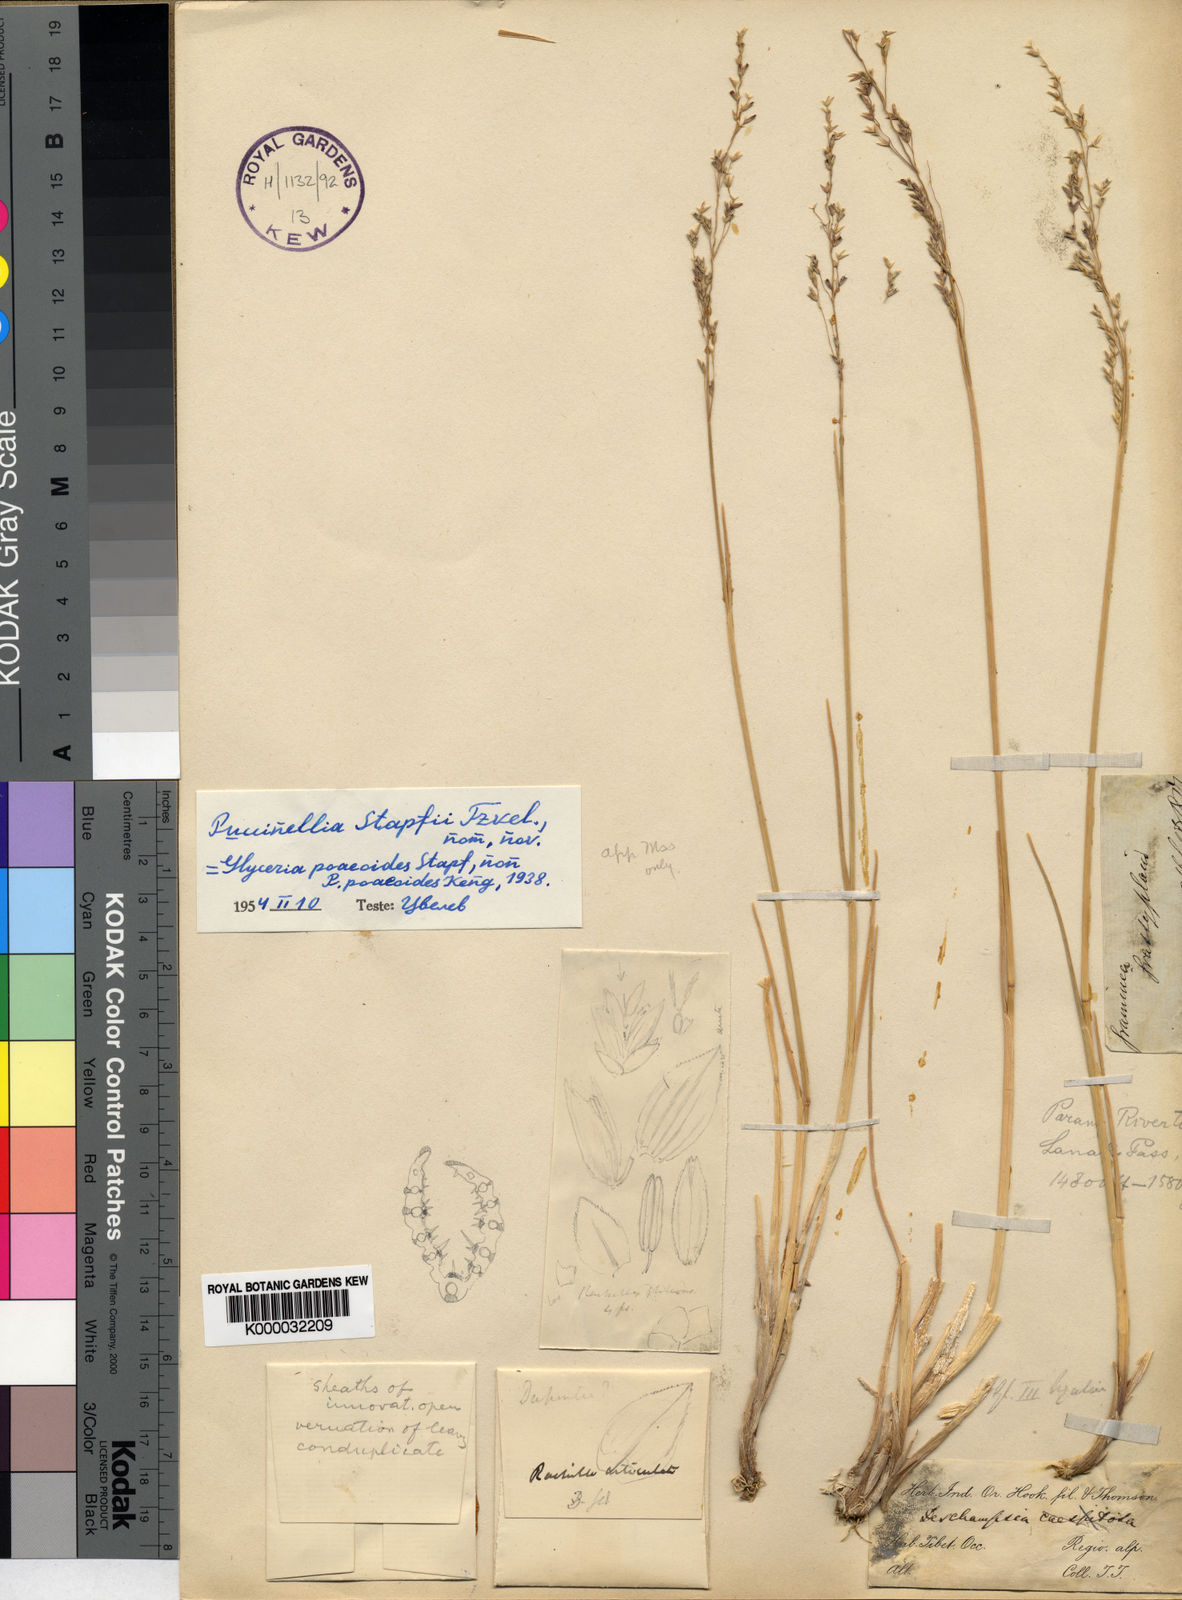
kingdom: Plantae
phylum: Tracheophyta
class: Liliopsida
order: Poales
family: Poaceae
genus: Puccinellia
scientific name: Puccinellia stapfiana
